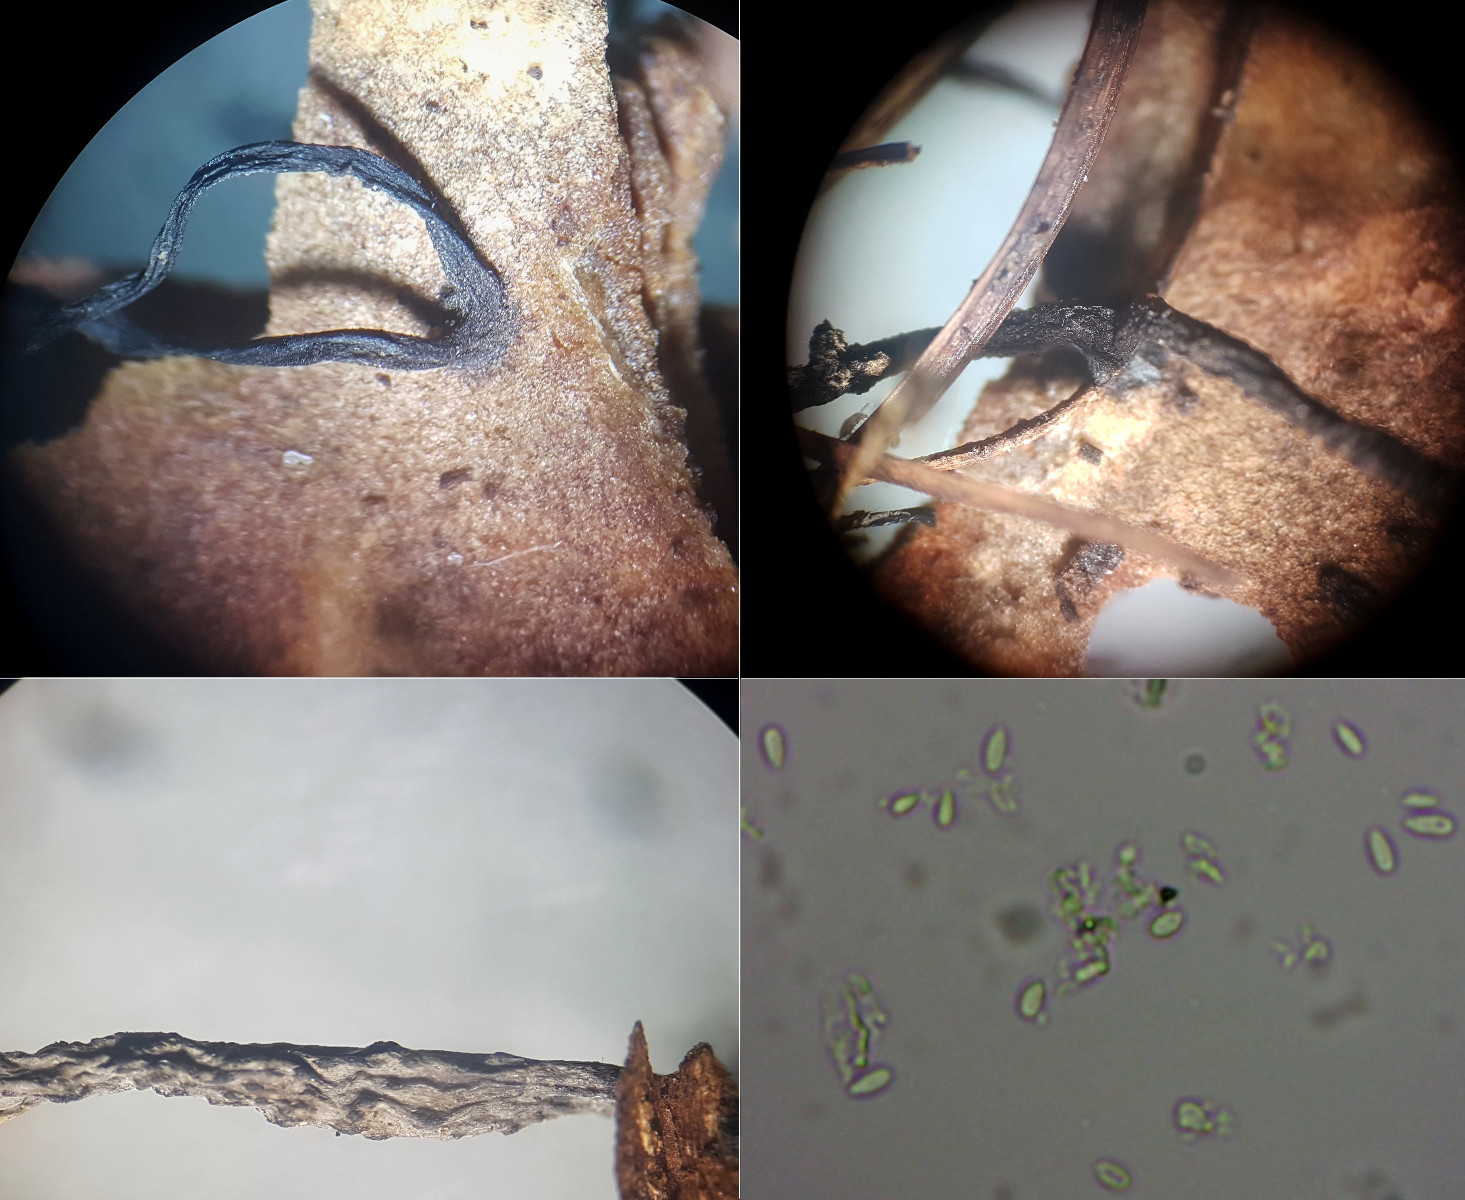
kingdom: Fungi
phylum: Ascomycota
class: Sordariomycetes
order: Xylariales
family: Xylariaceae
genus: Xylaria
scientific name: Xylaria
